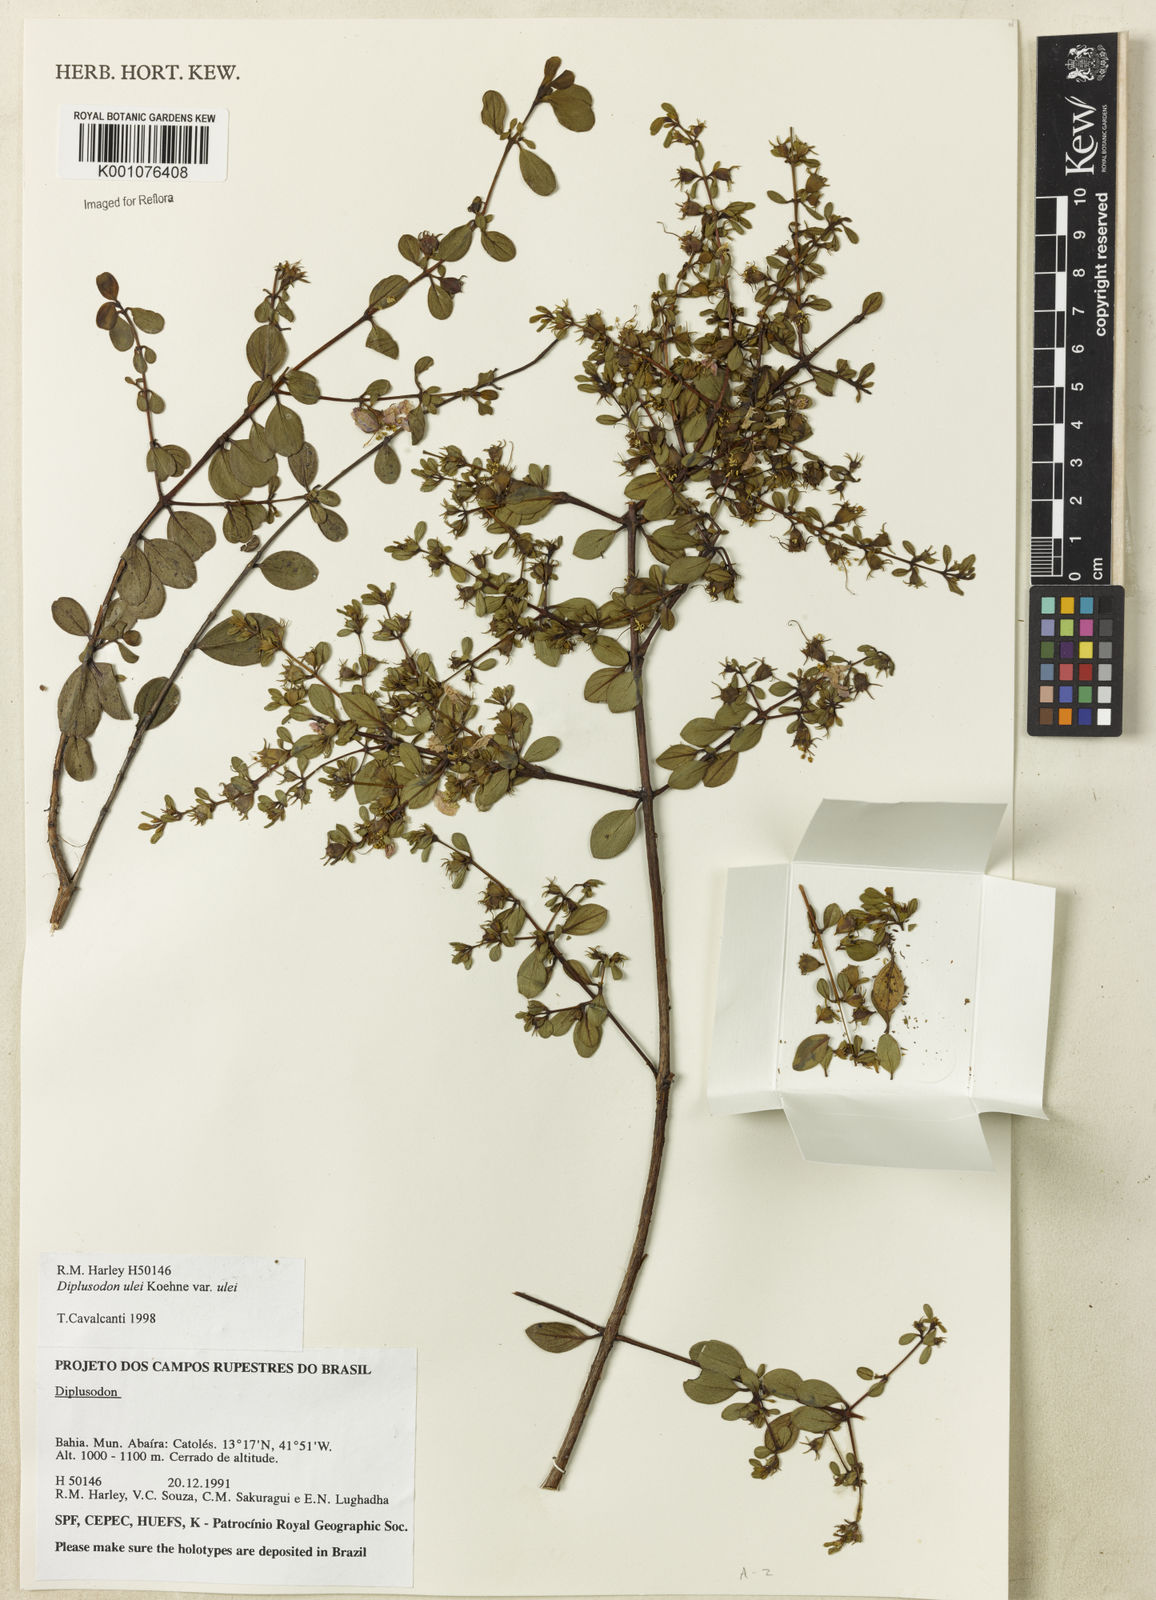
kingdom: Plantae
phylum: Tracheophyta
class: Magnoliopsida
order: Myrtales
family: Lythraceae
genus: Diplusodon
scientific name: Diplusodon ulei
